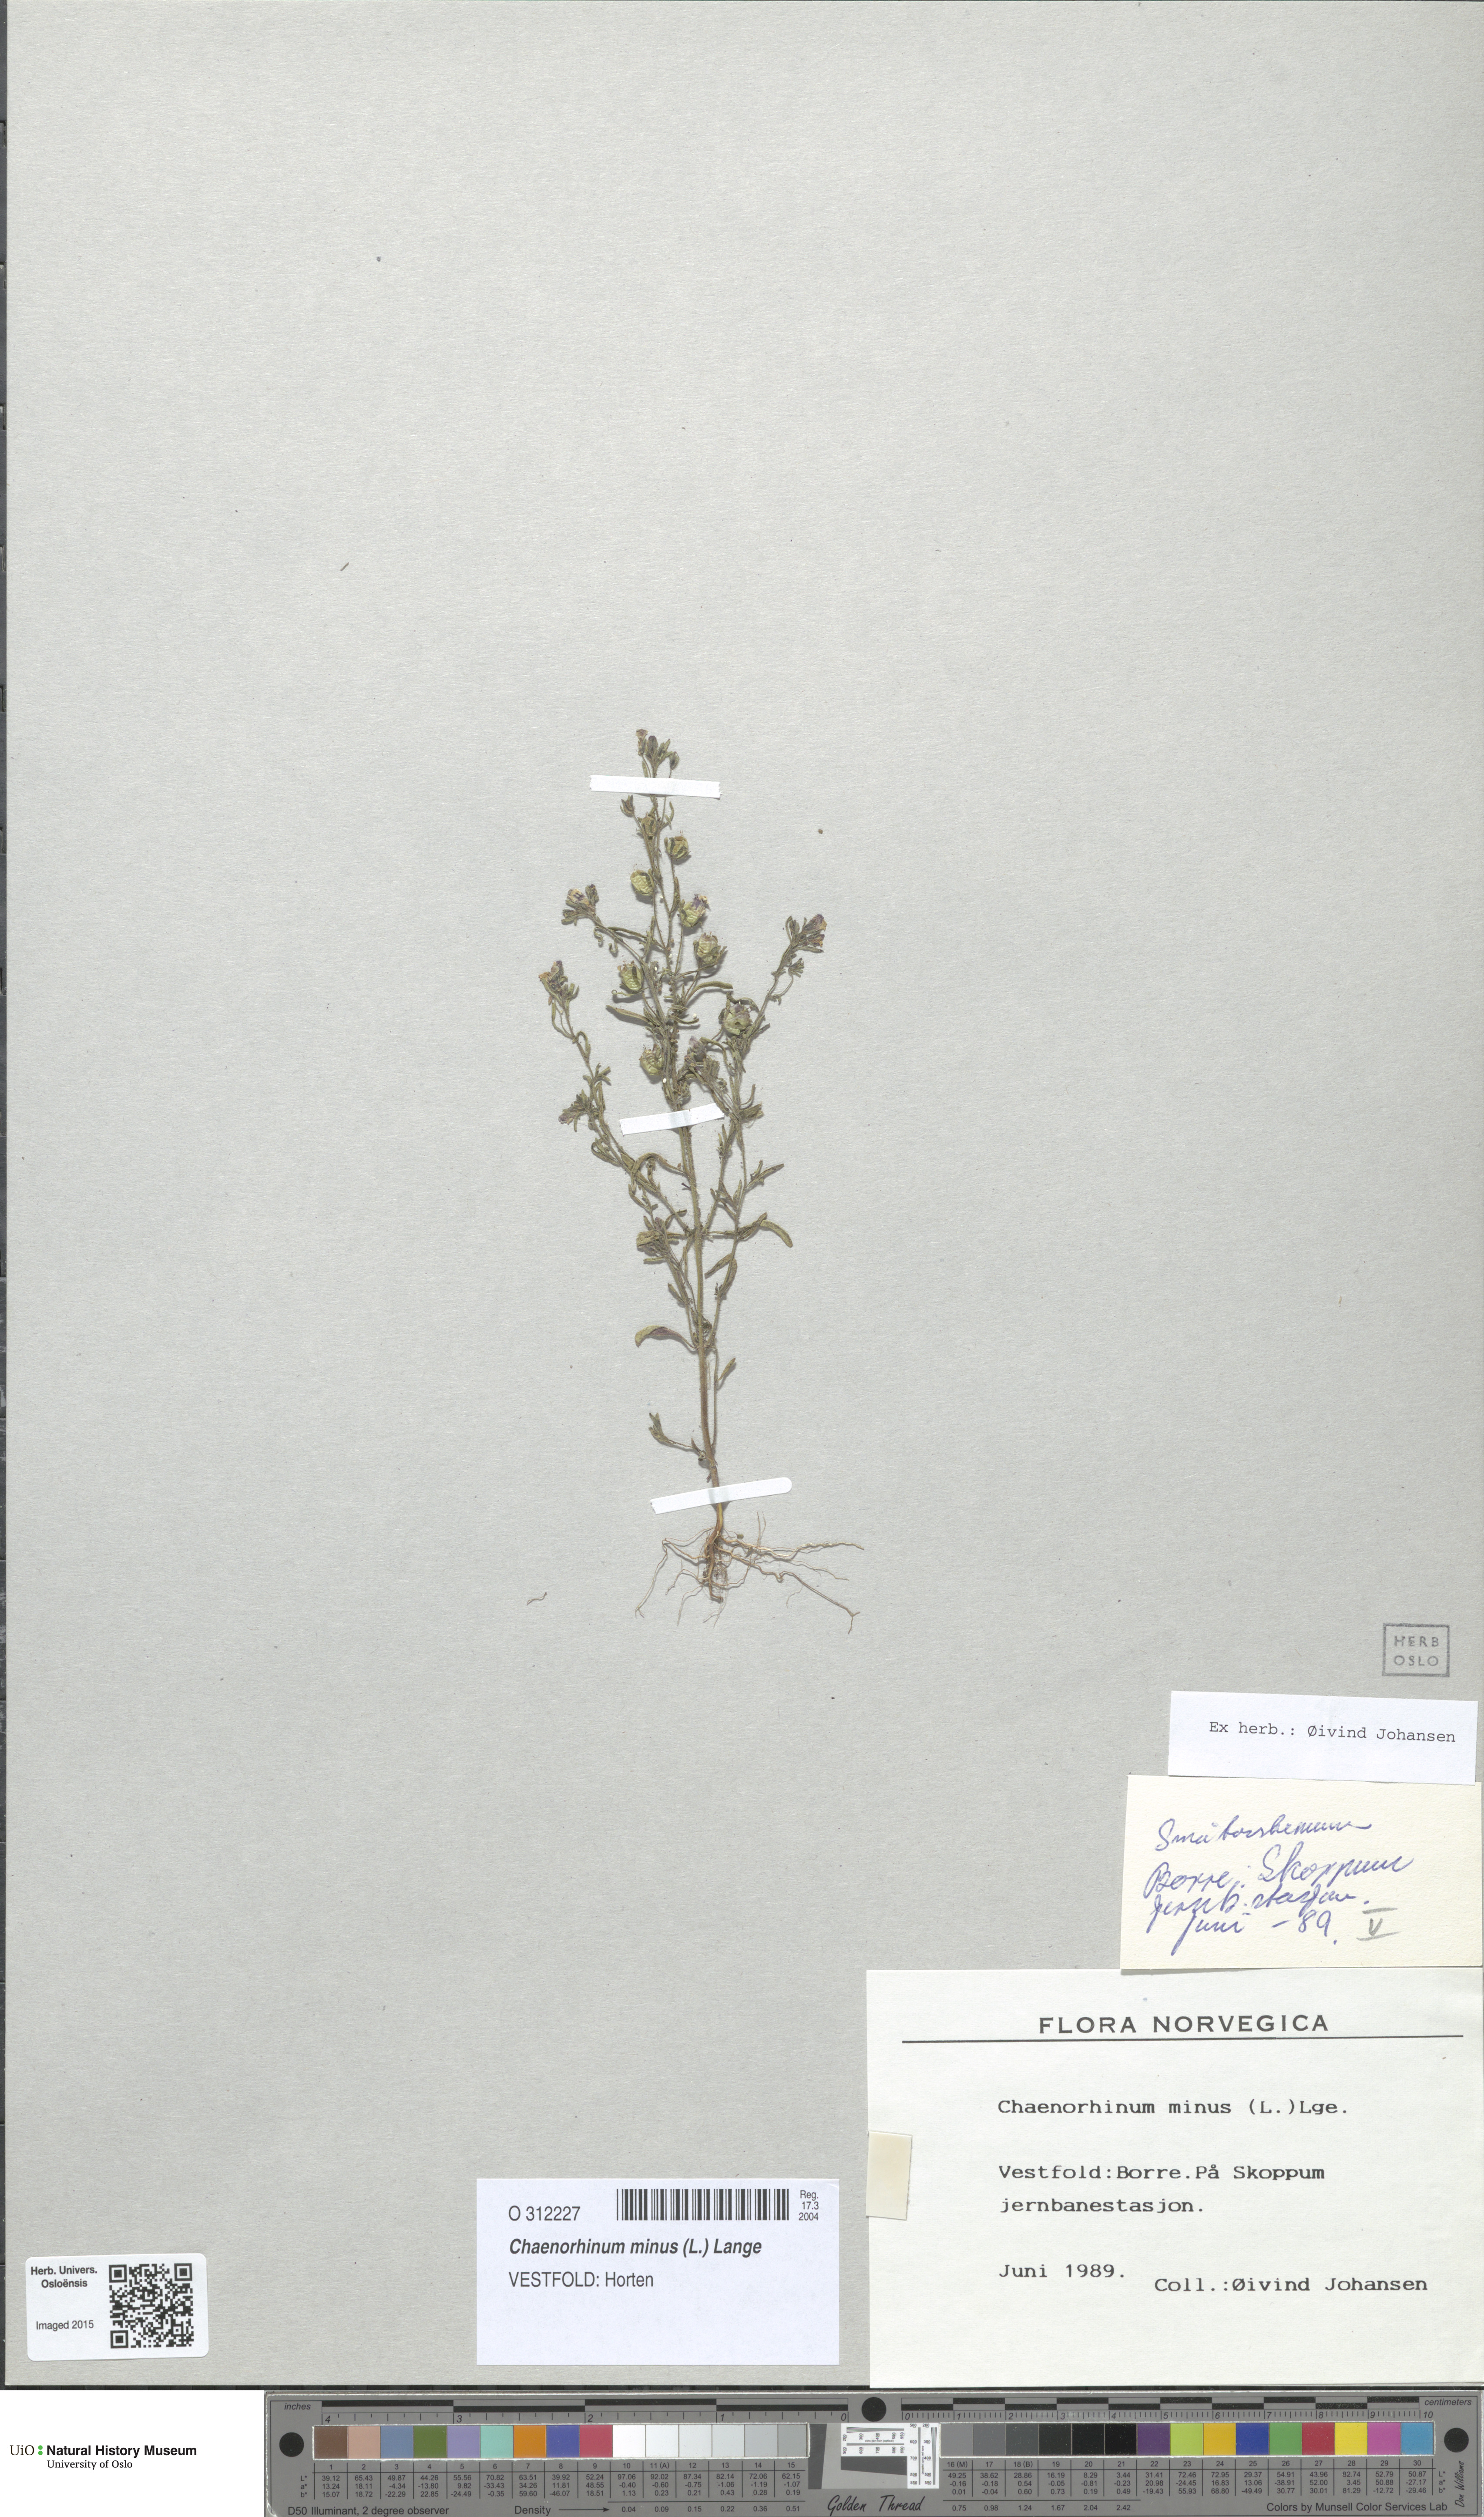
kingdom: Plantae
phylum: Tracheophyta
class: Magnoliopsida
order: Lamiales
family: Plantaginaceae
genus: Chaenorhinum
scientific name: Chaenorhinum minus
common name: Dwarf snapdragon
